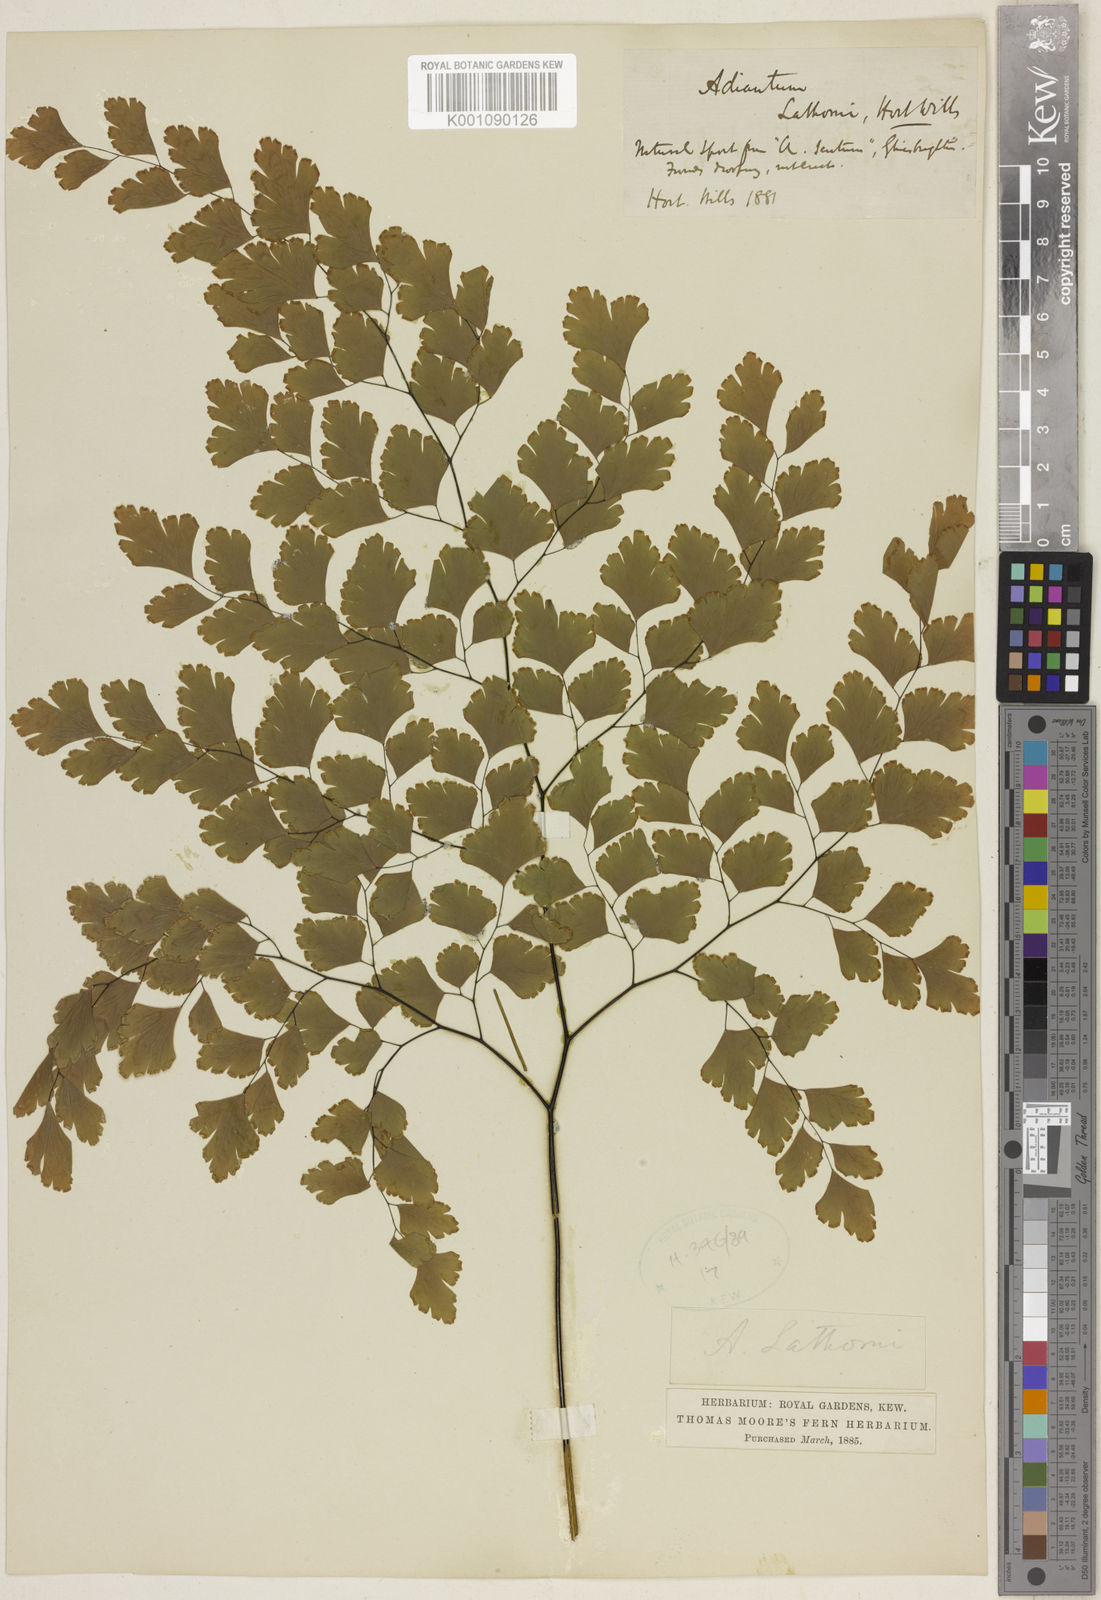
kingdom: Plantae
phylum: Tracheophyta
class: Polypodiopsida
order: Polypodiales
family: Pteridaceae
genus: Adiantum
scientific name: Adiantum
